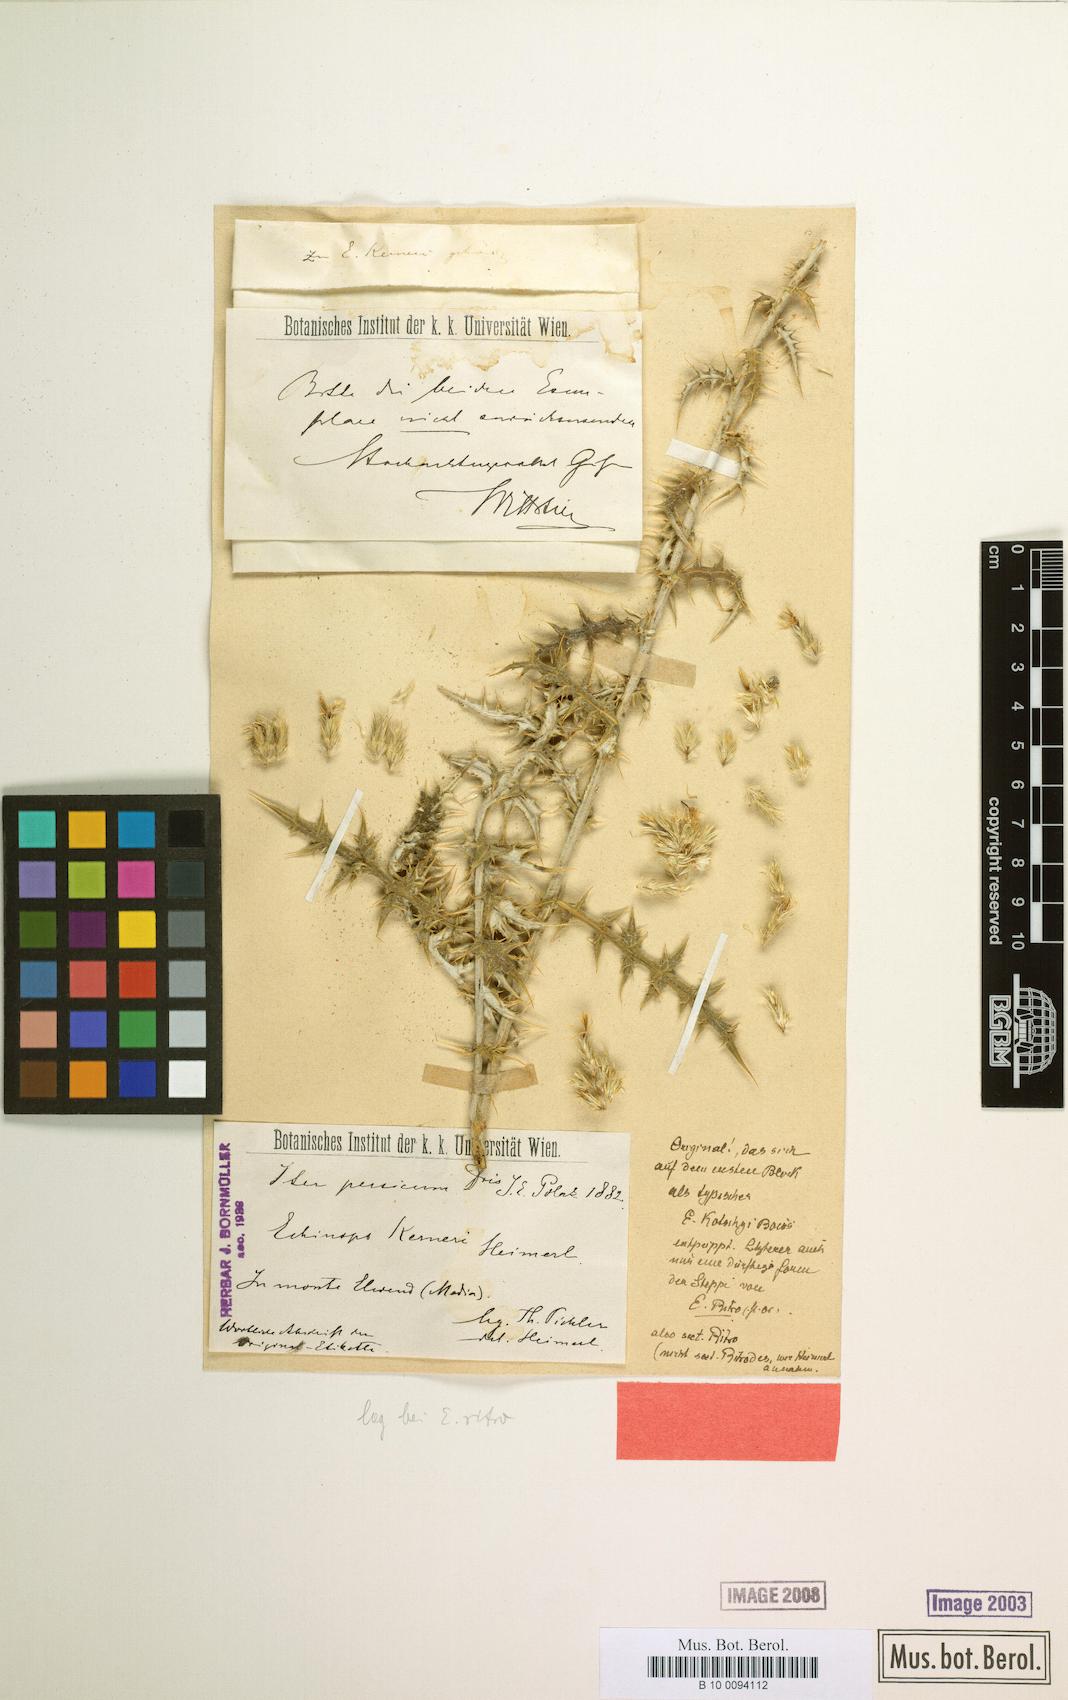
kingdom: Plantae
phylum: Tracheophyta
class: Magnoliopsida
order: Asterales
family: Asteraceae
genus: Echinops
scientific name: Echinops ritro
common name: Globe thistle
